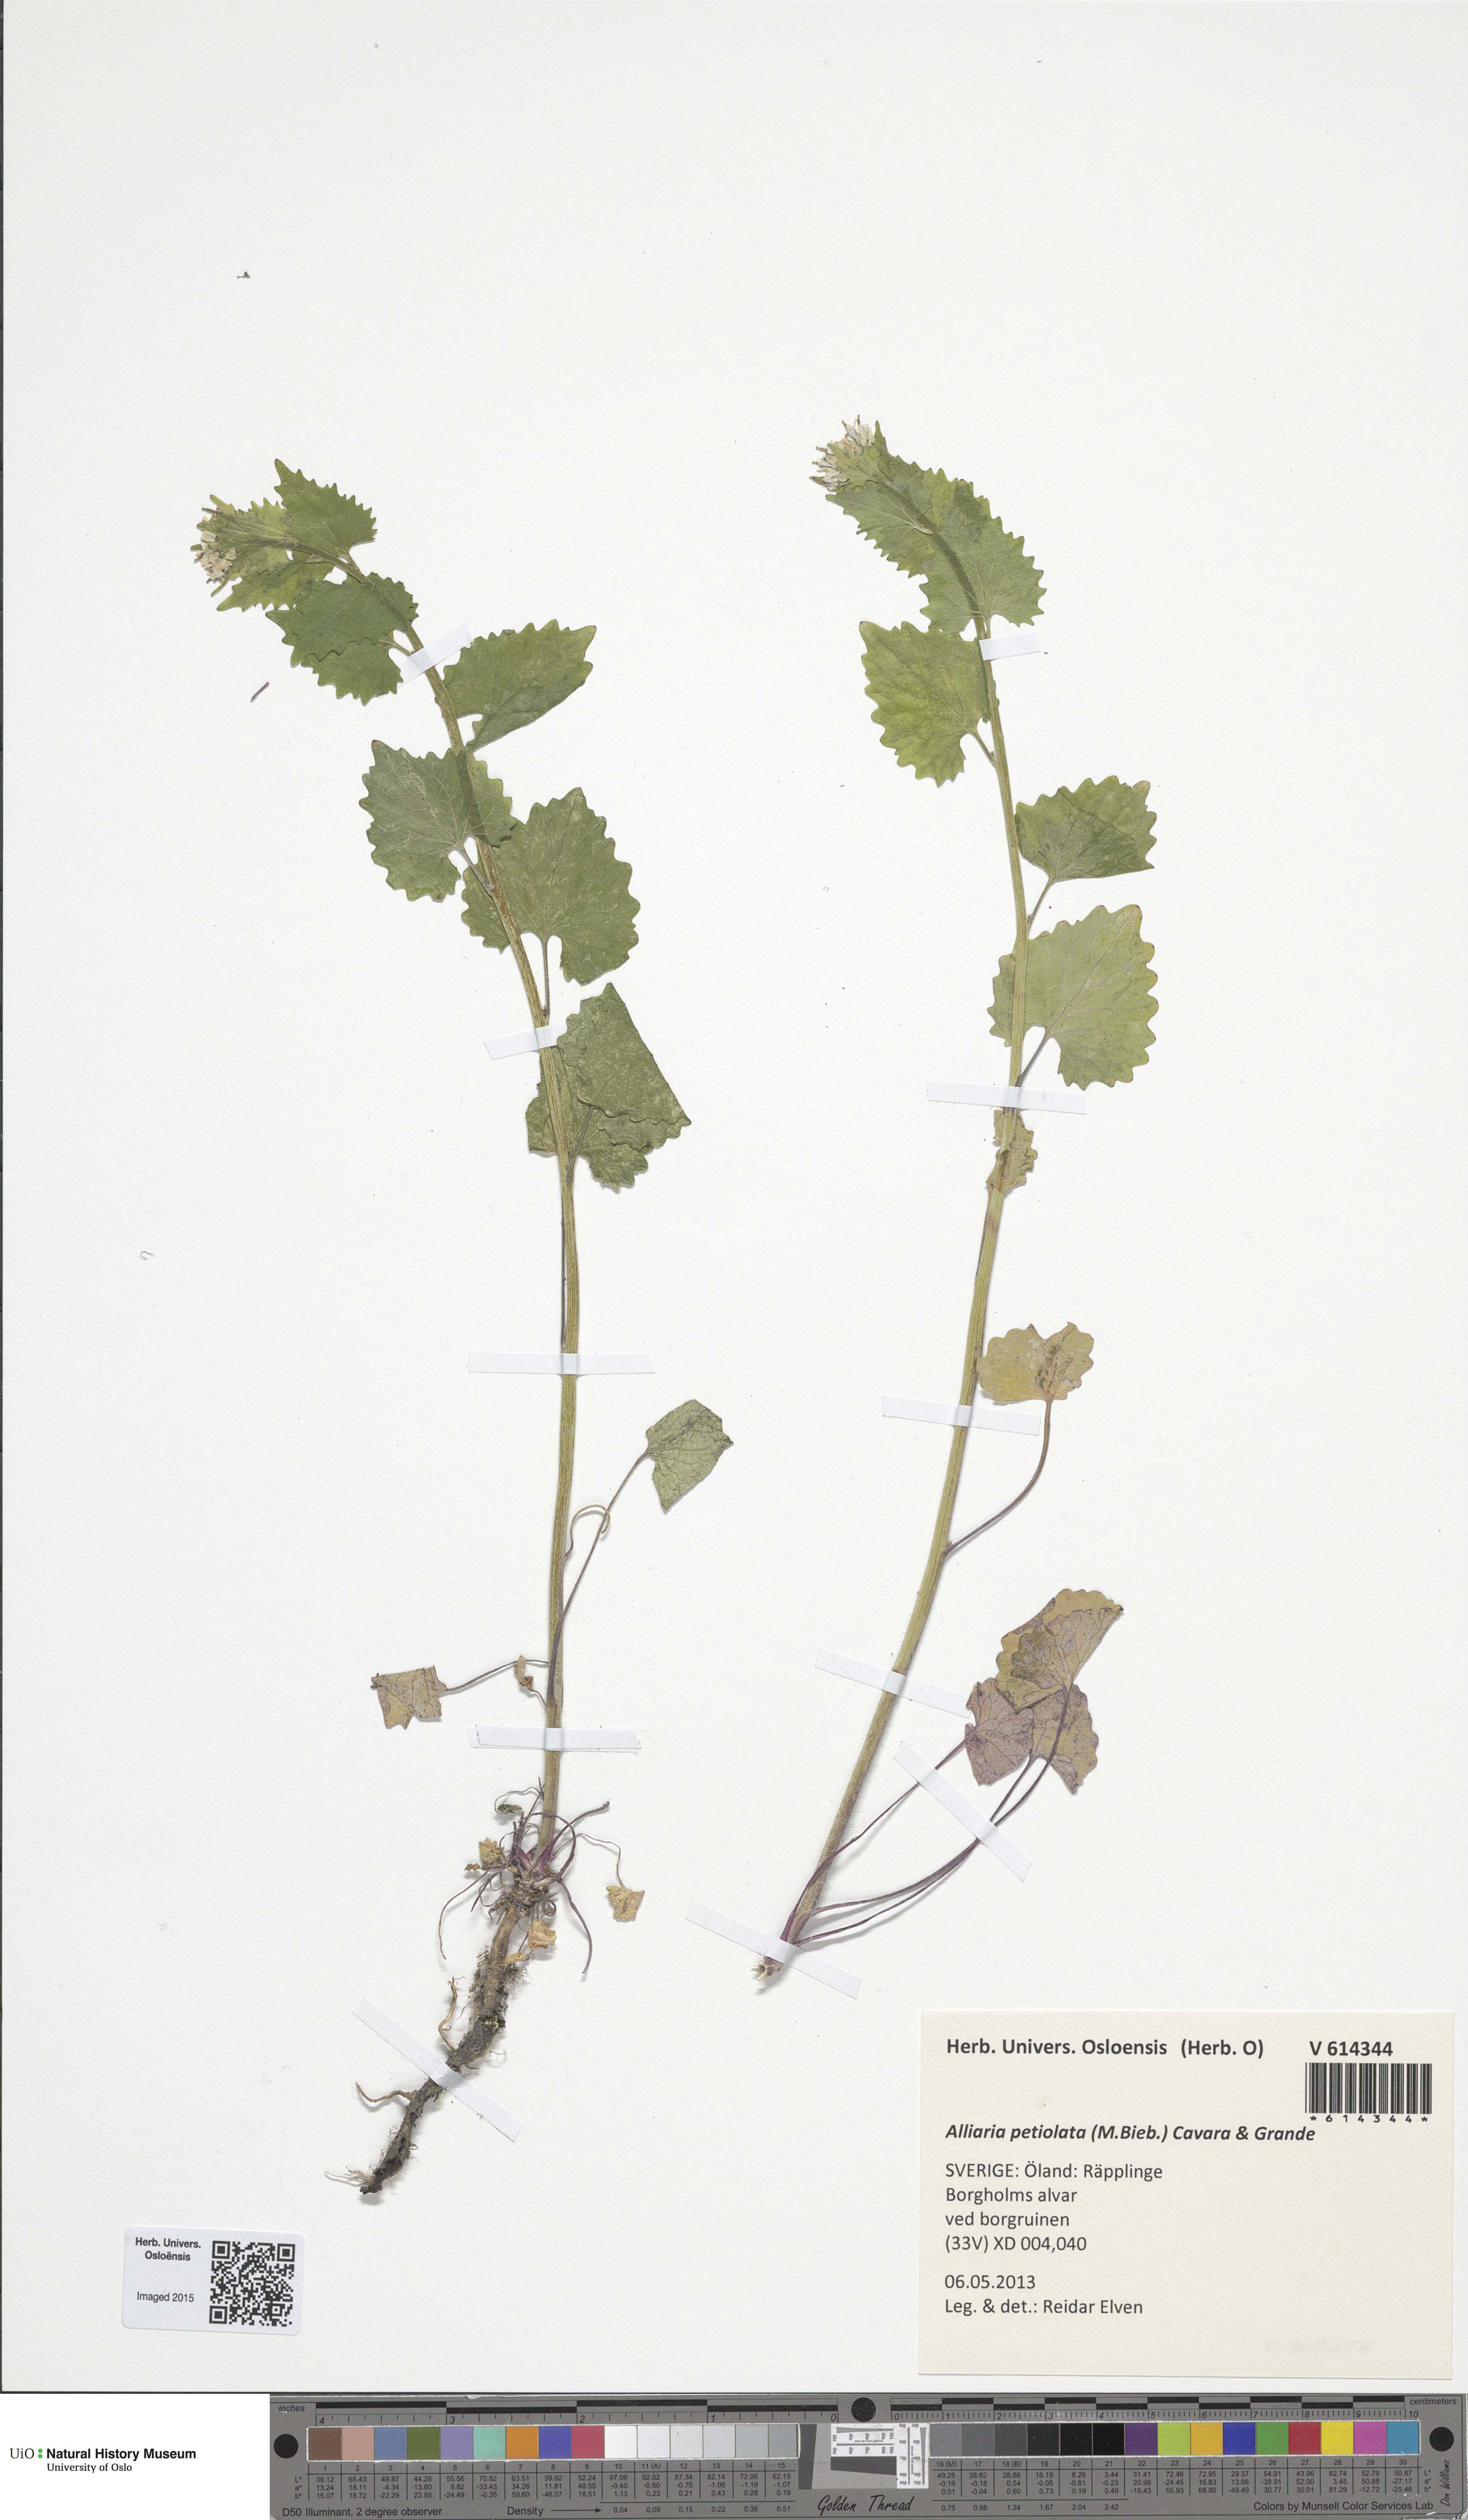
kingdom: Plantae
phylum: Tracheophyta
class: Magnoliopsida
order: Brassicales
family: Brassicaceae
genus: Alliaria
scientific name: Alliaria petiolata
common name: Garlic mustard
